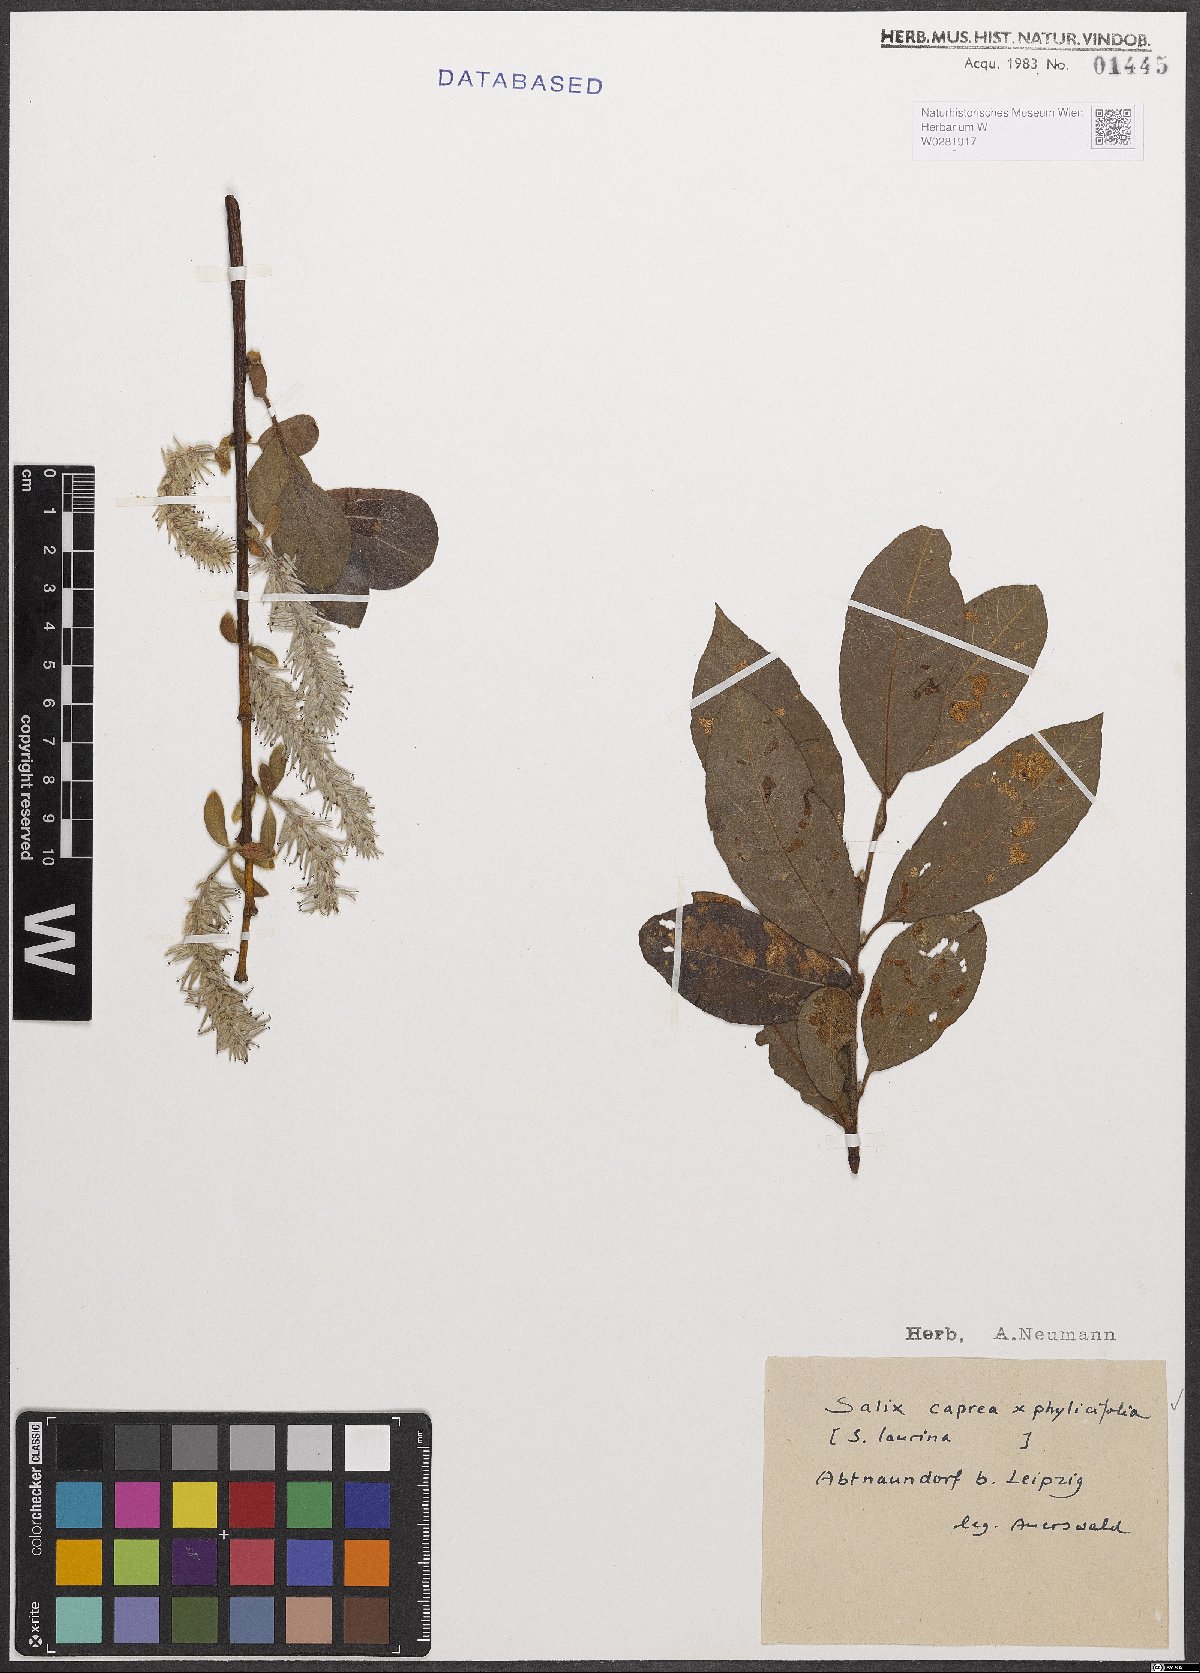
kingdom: Plantae
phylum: Tracheophyta
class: Magnoliopsida
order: Malpighiales
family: Salicaceae
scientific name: Salicaceae
